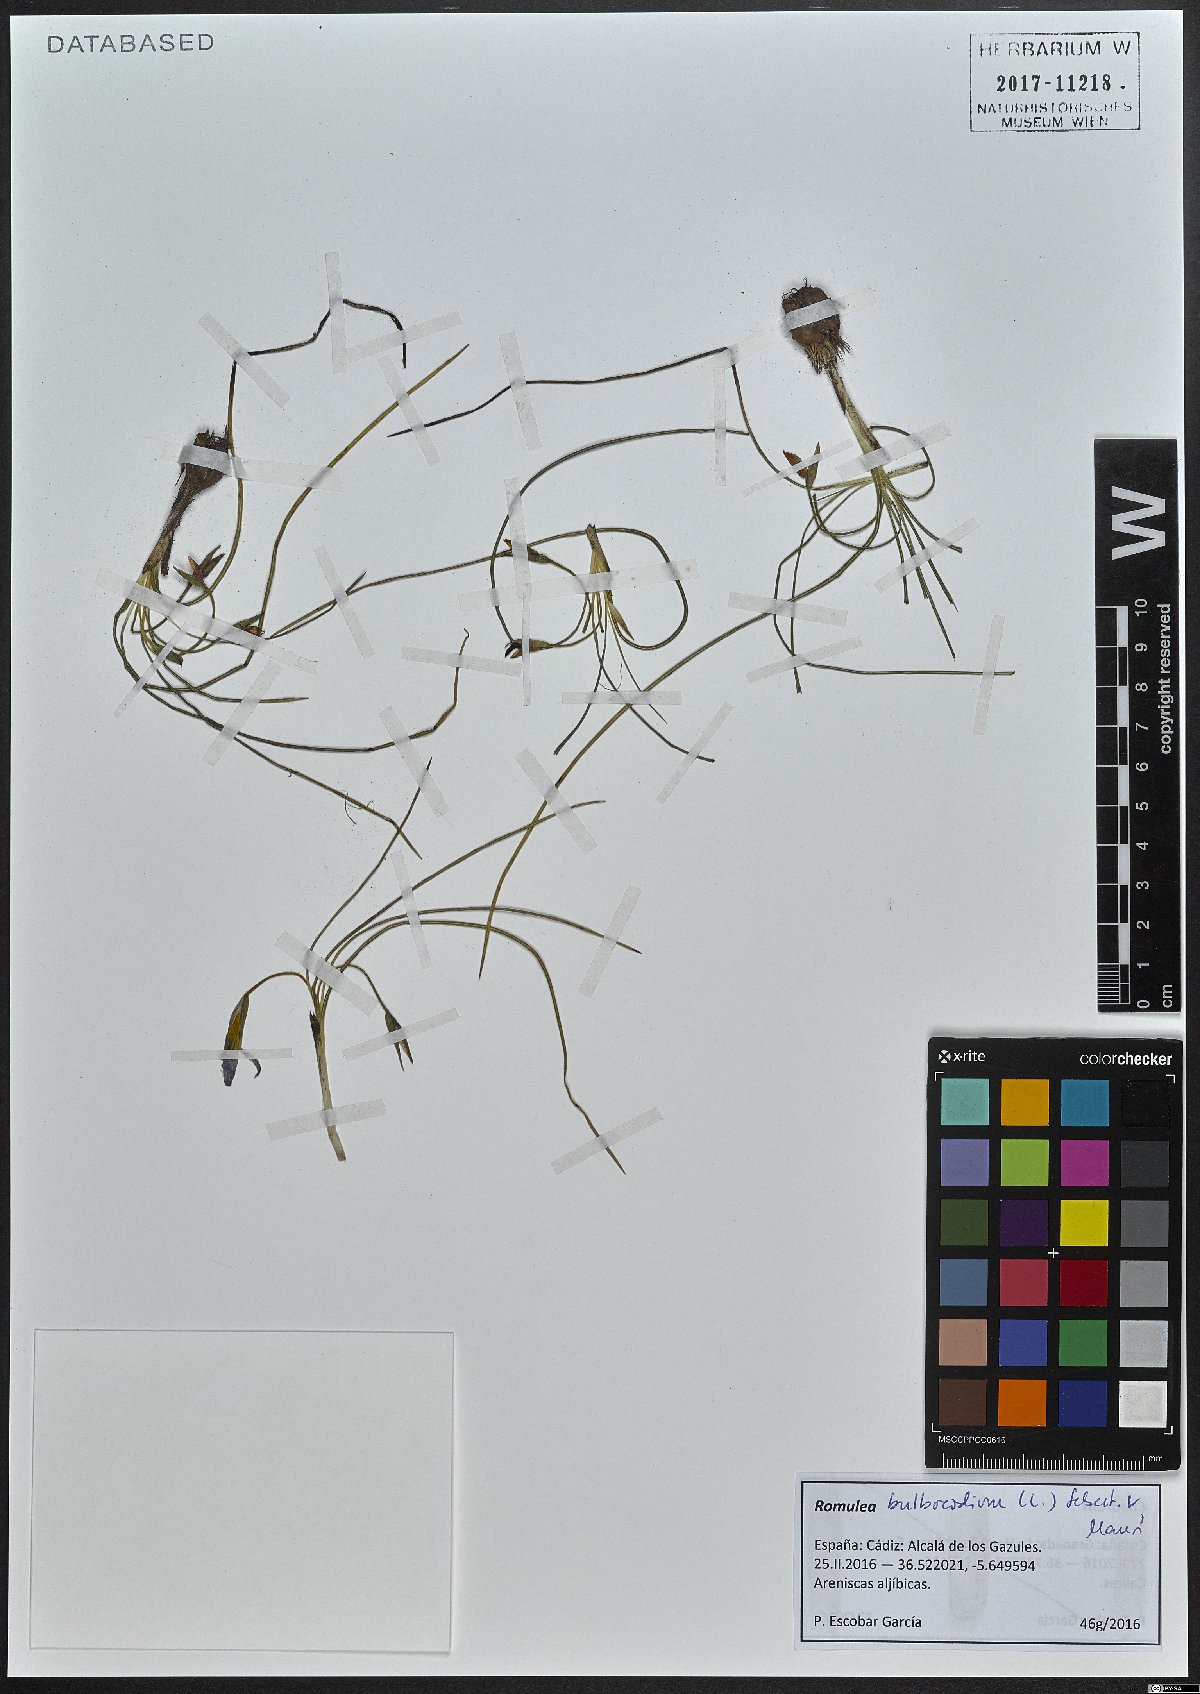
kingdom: Plantae
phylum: Tracheophyta
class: Liliopsida
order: Asparagales
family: Iridaceae
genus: Romulea
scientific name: Romulea bulbocodium
